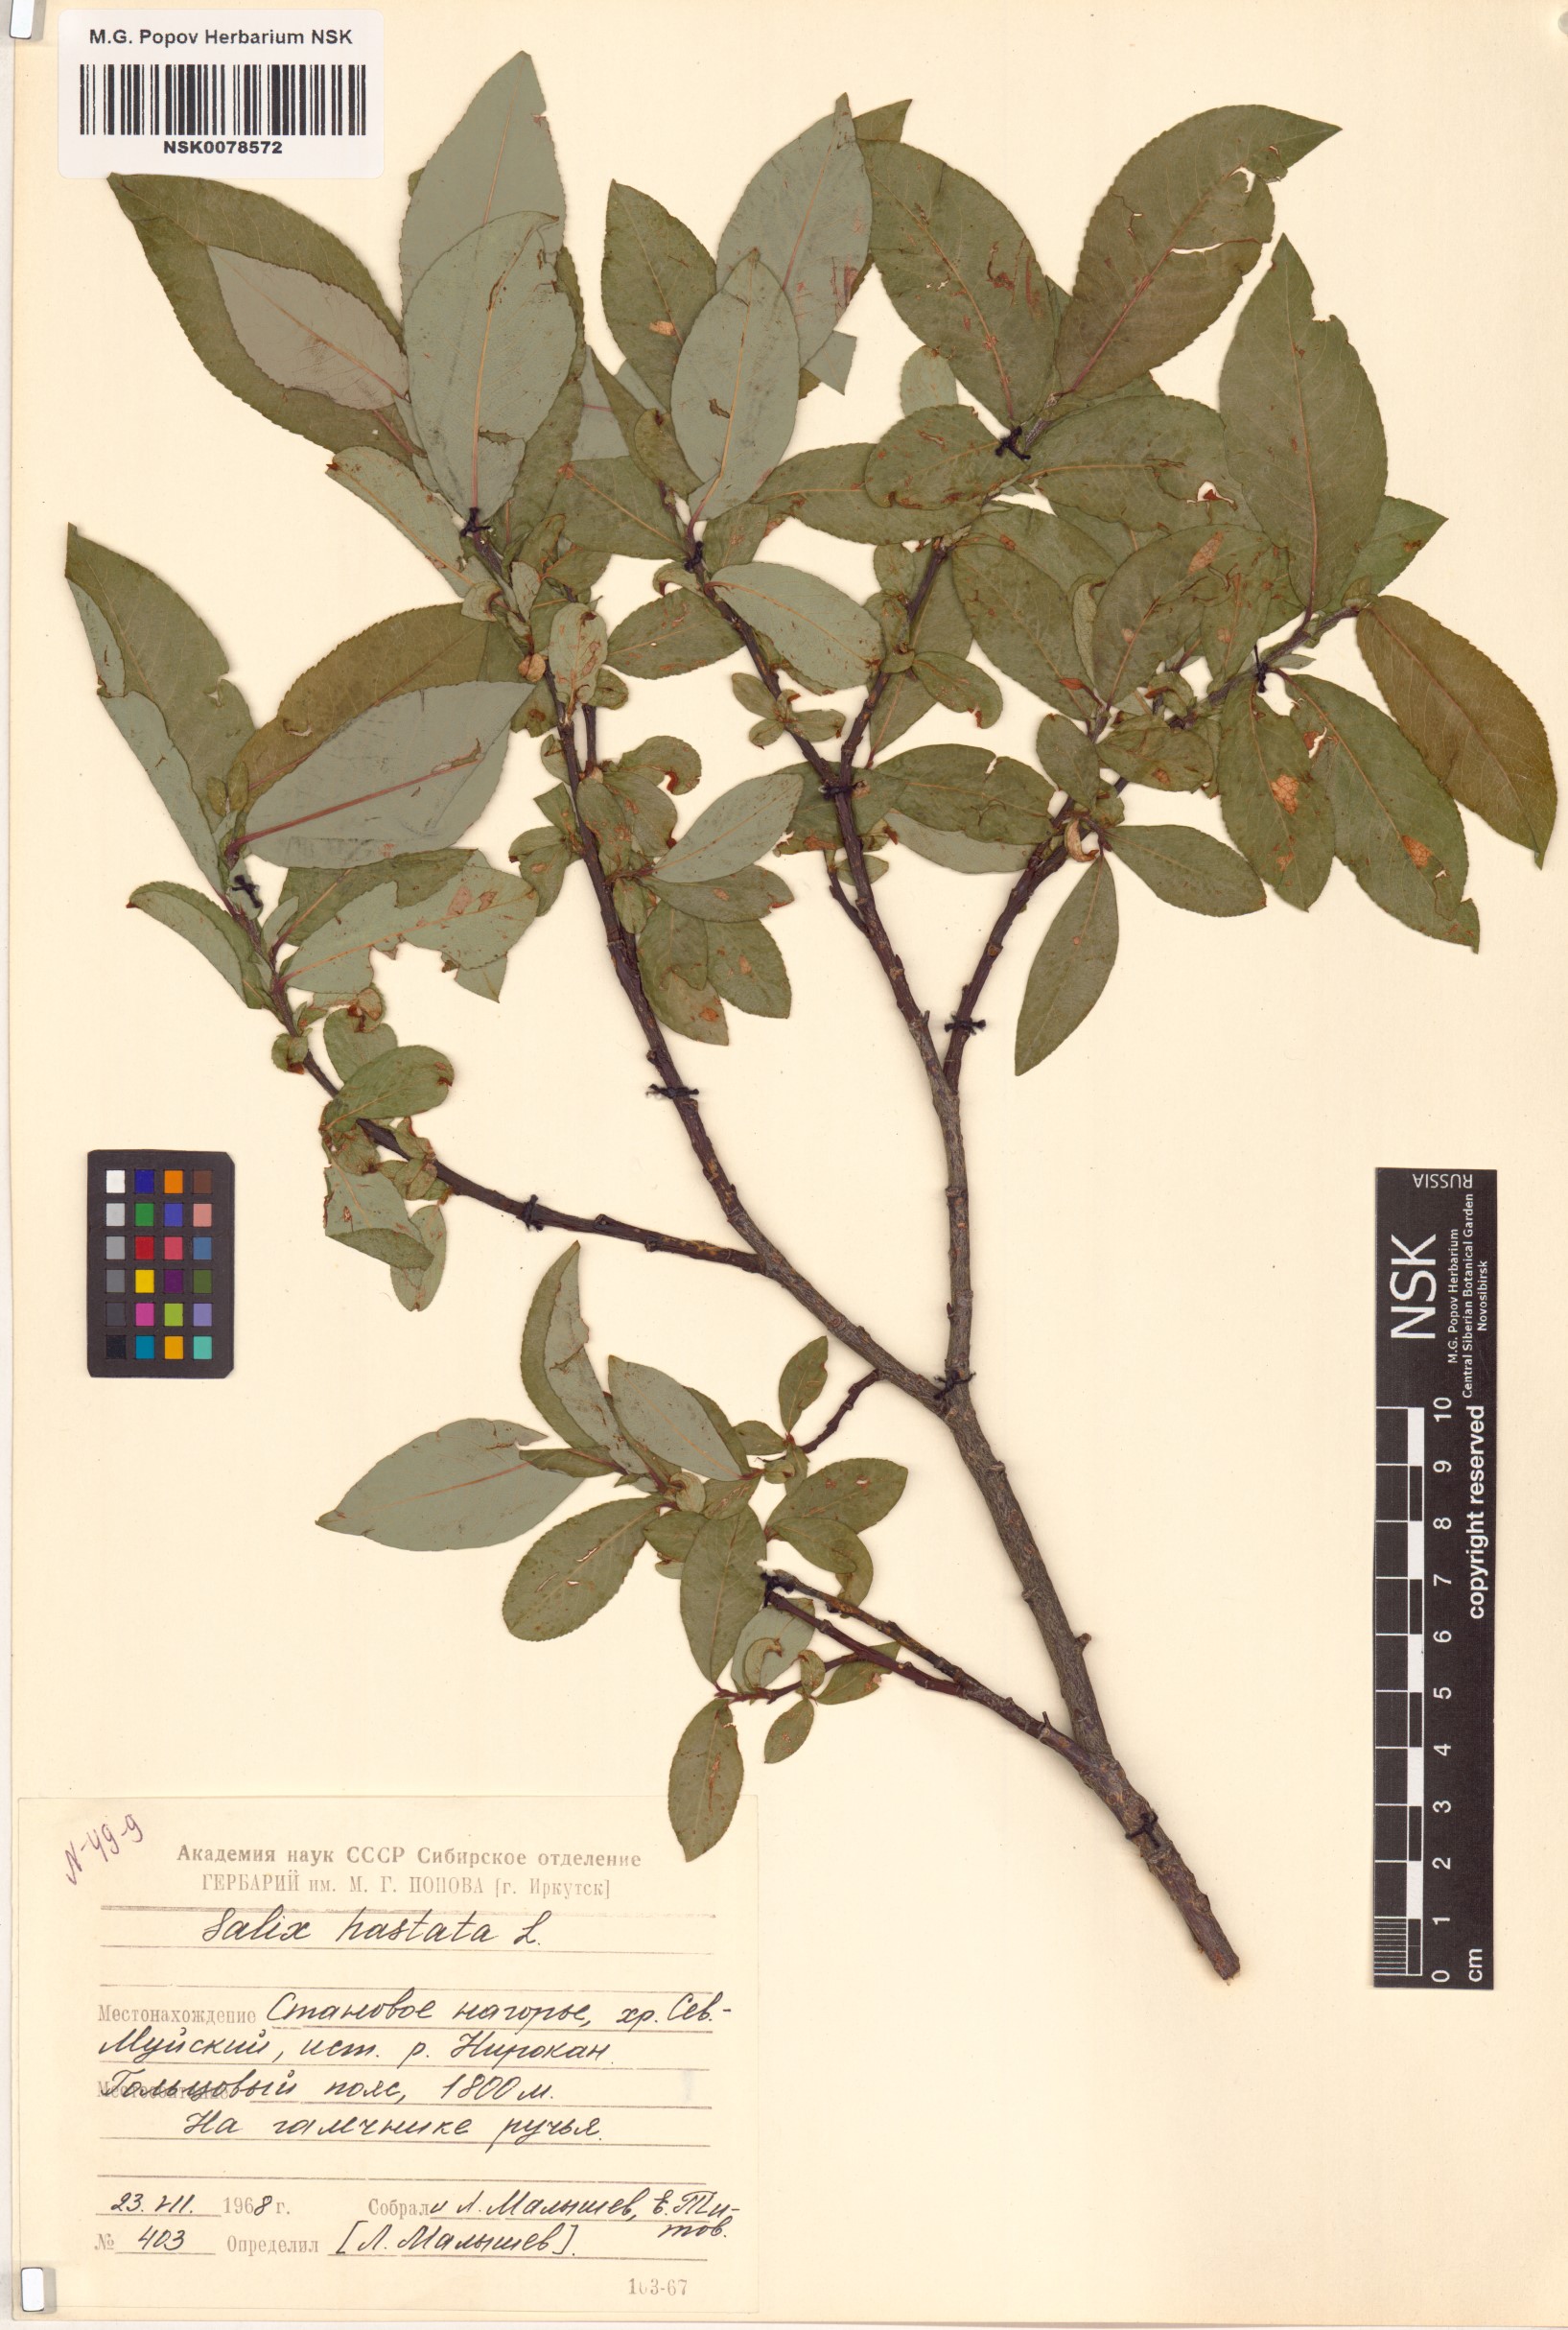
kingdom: Plantae
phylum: Tracheophyta
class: Magnoliopsida
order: Malpighiales
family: Salicaceae
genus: Salix
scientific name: Salix hastata
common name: Halberd willow
